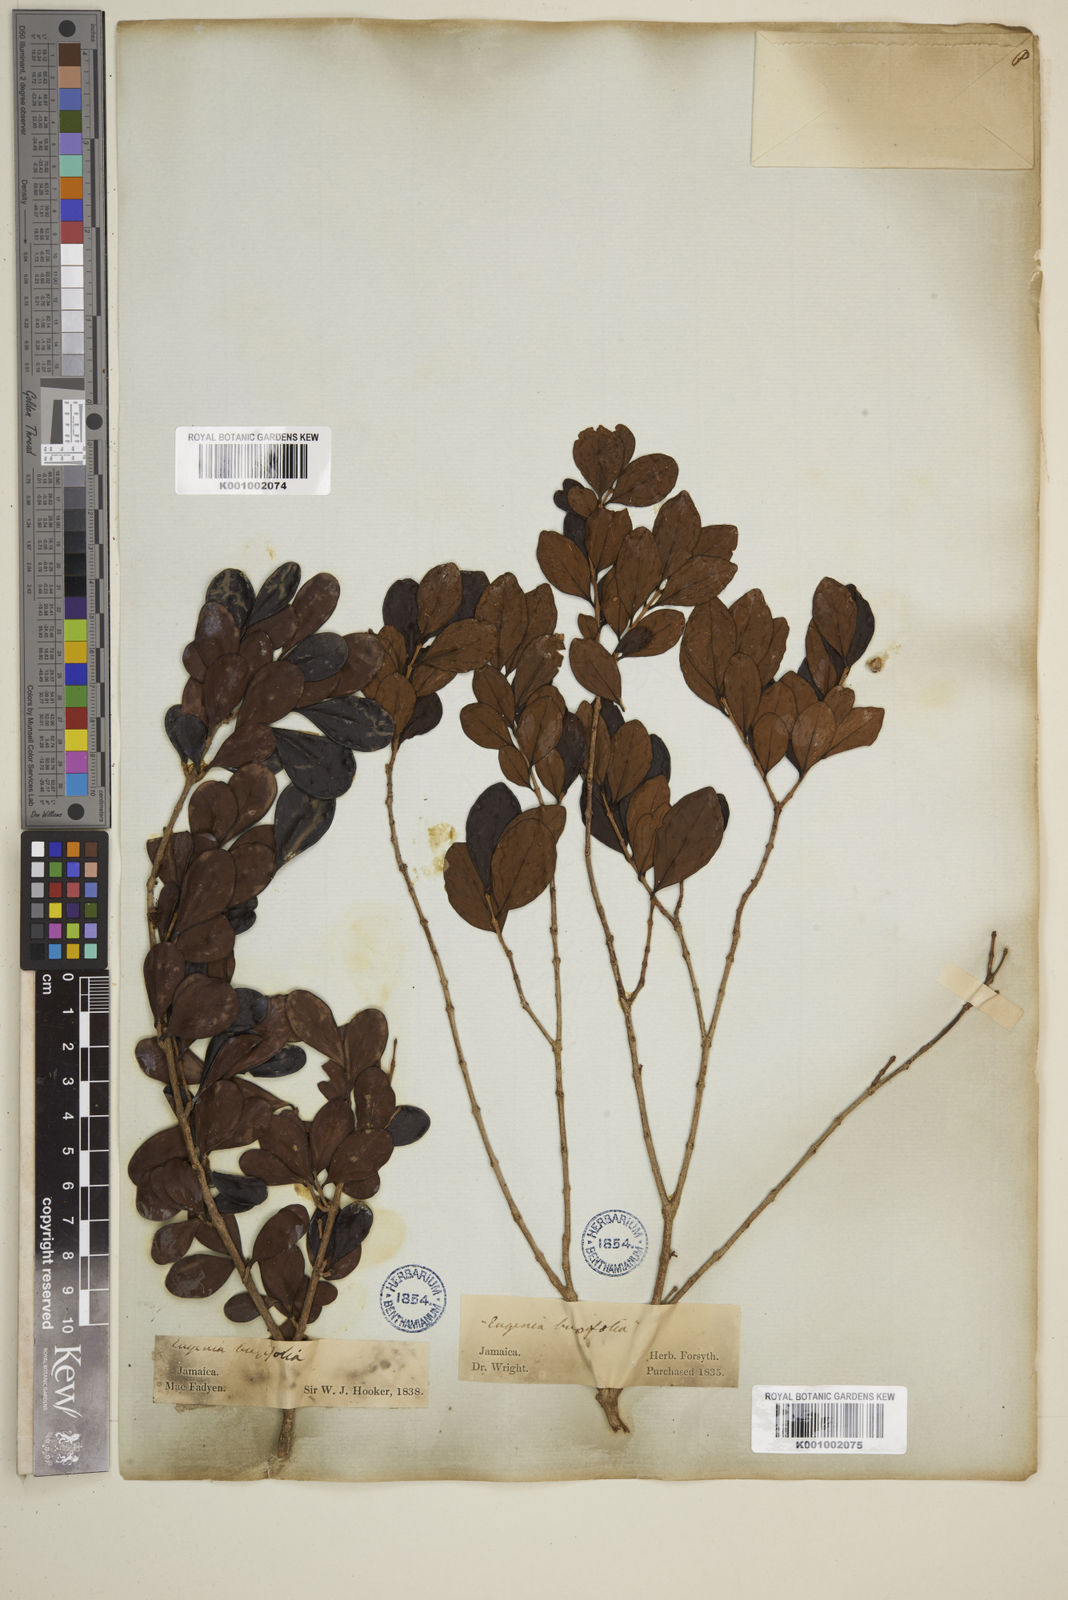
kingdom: Plantae
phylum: Tracheophyta
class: Magnoliopsida
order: Myrtales
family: Myrtaceae
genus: Eugenia
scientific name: Eugenia buxifolia
